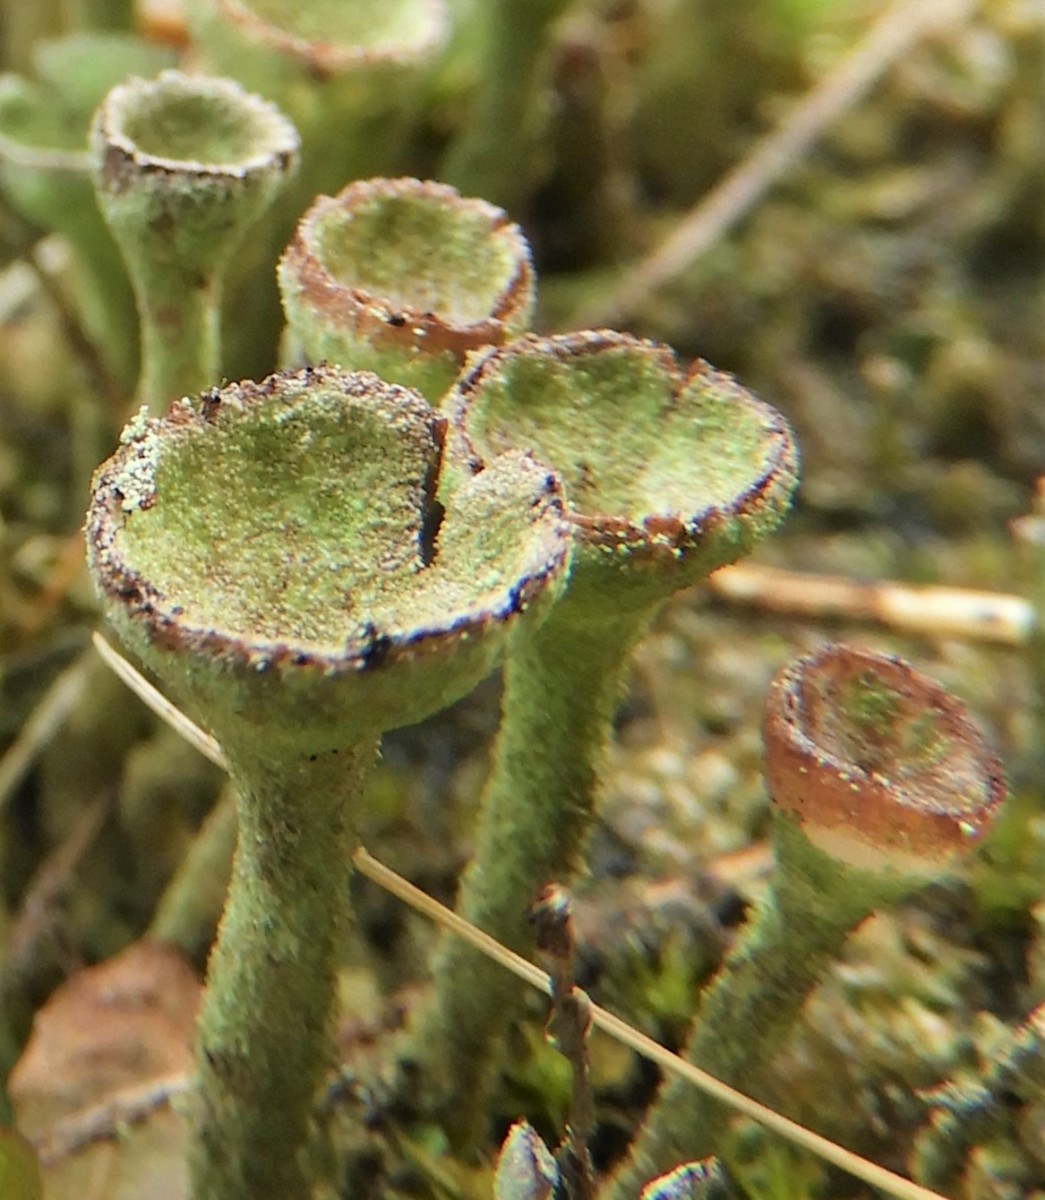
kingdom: Fungi
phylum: Ascomycota
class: Lecanoromycetes
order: Lecanorales
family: Cladoniaceae
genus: Cladonia
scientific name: Cladonia
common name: brungrøn bægerlav
